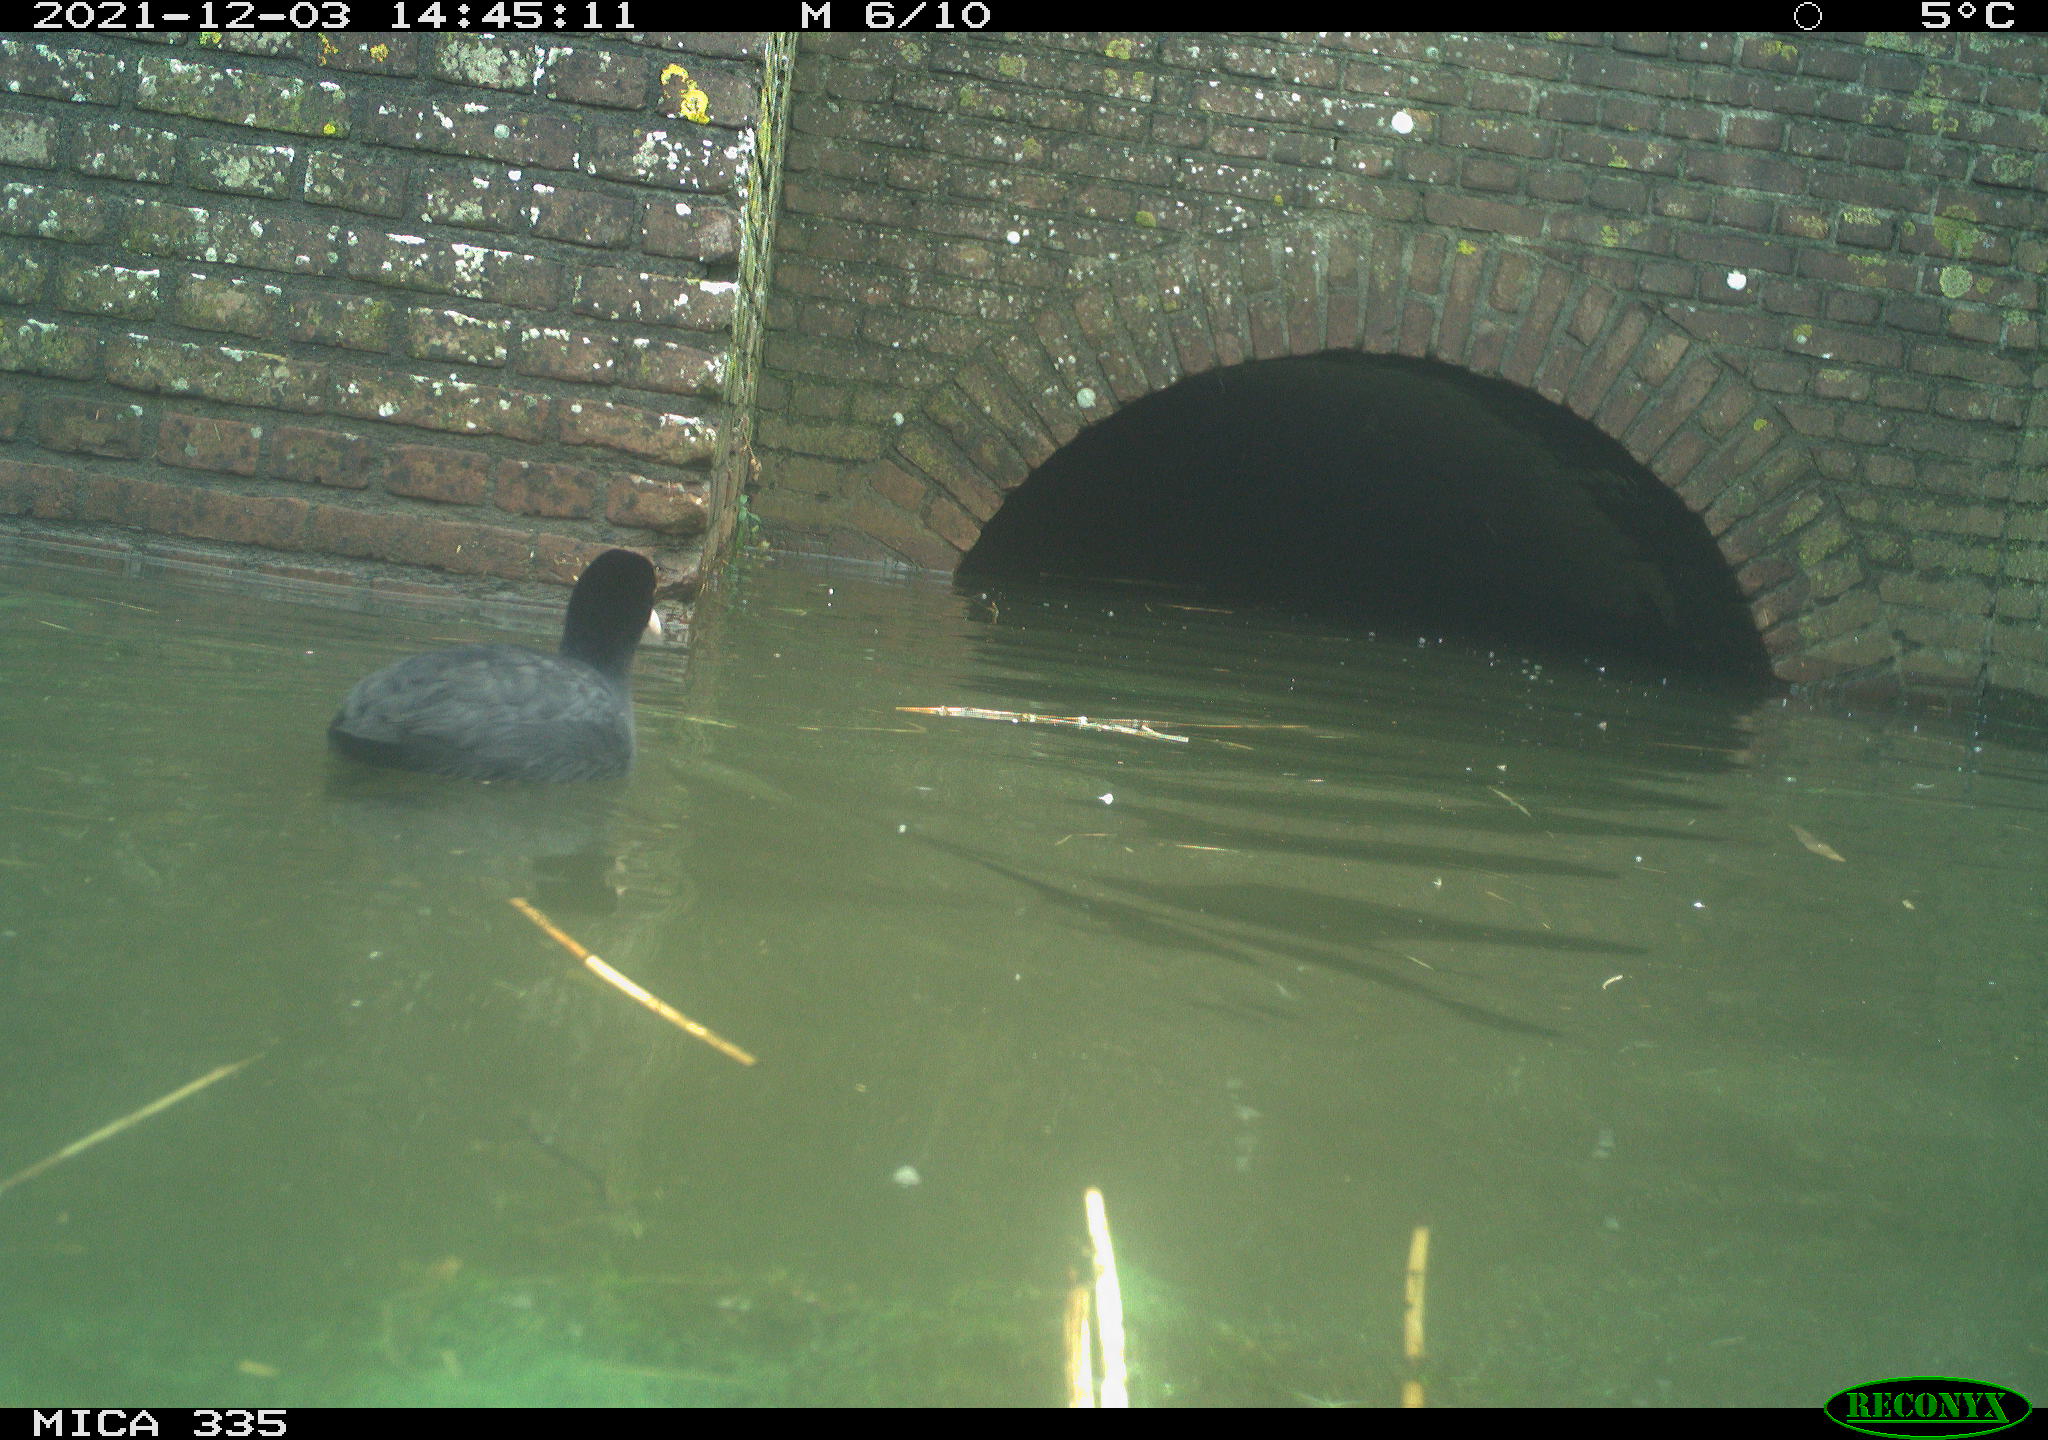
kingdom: Animalia
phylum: Chordata
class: Aves
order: Gruiformes
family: Rallidae
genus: Fulica
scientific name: Fulica atra
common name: Eurasian coot
